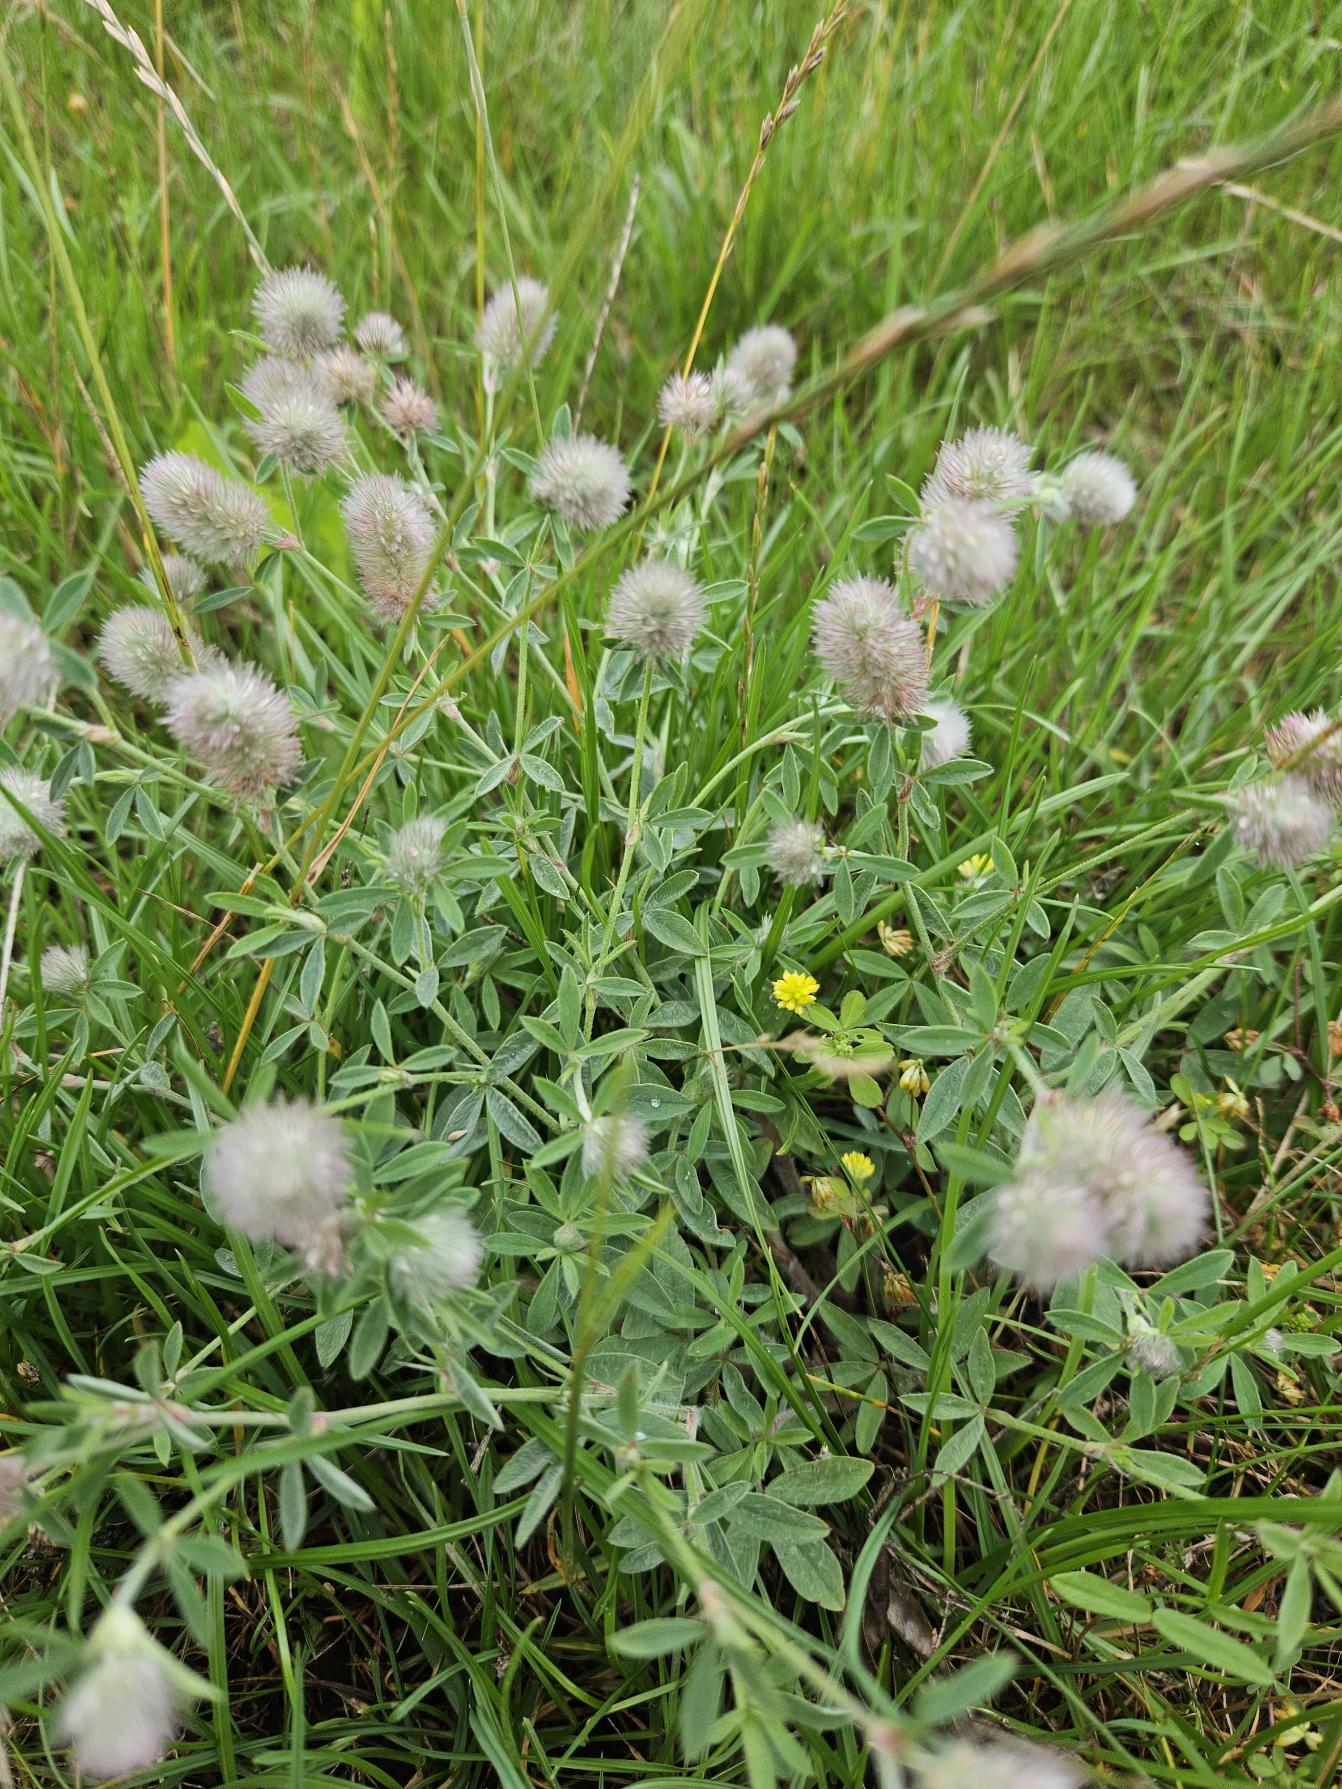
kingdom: Plantae
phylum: Tracheophyta
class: Magnoliopsida
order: Fabales
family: Fabaceae
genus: Trifolium
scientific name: Trifolium arvense
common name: Hare-kløver
